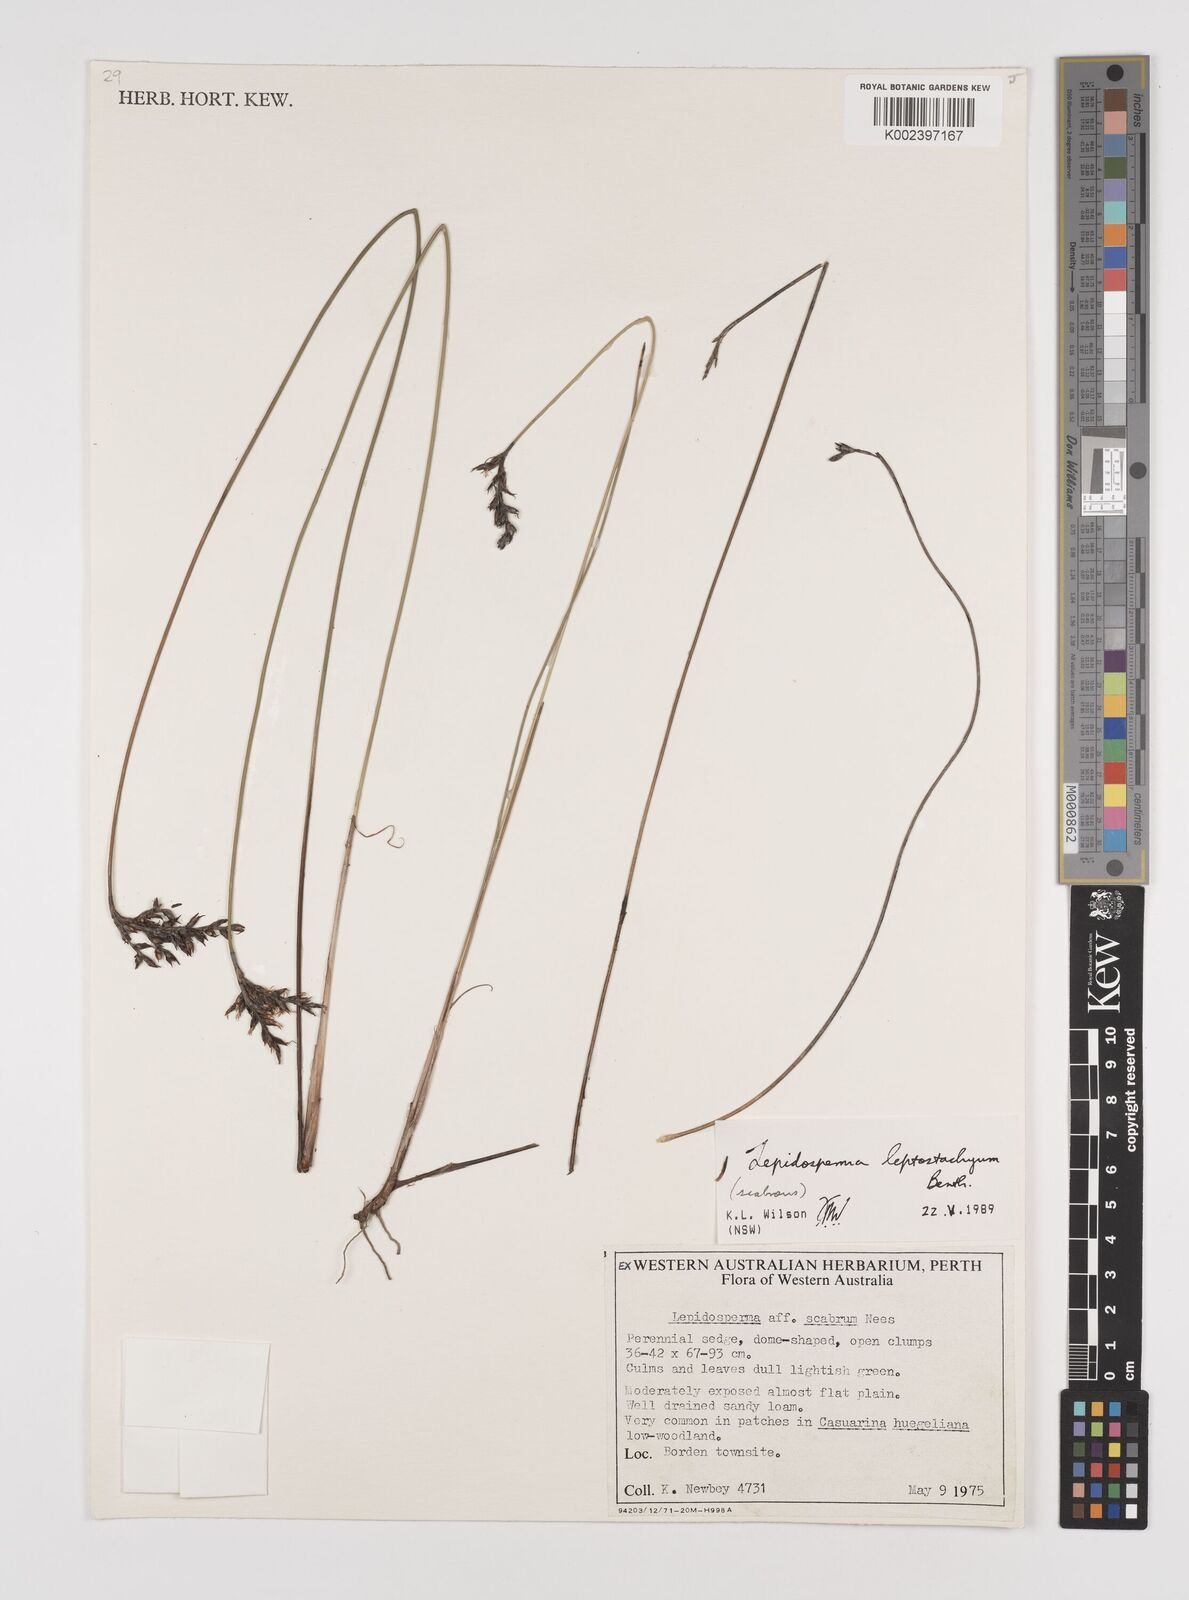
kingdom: Plantae
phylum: Tracheophyta
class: Liliopsida
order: Poales
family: Cyperaceae
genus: Lepidosperma
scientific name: Lepidosperma leptostachyum
